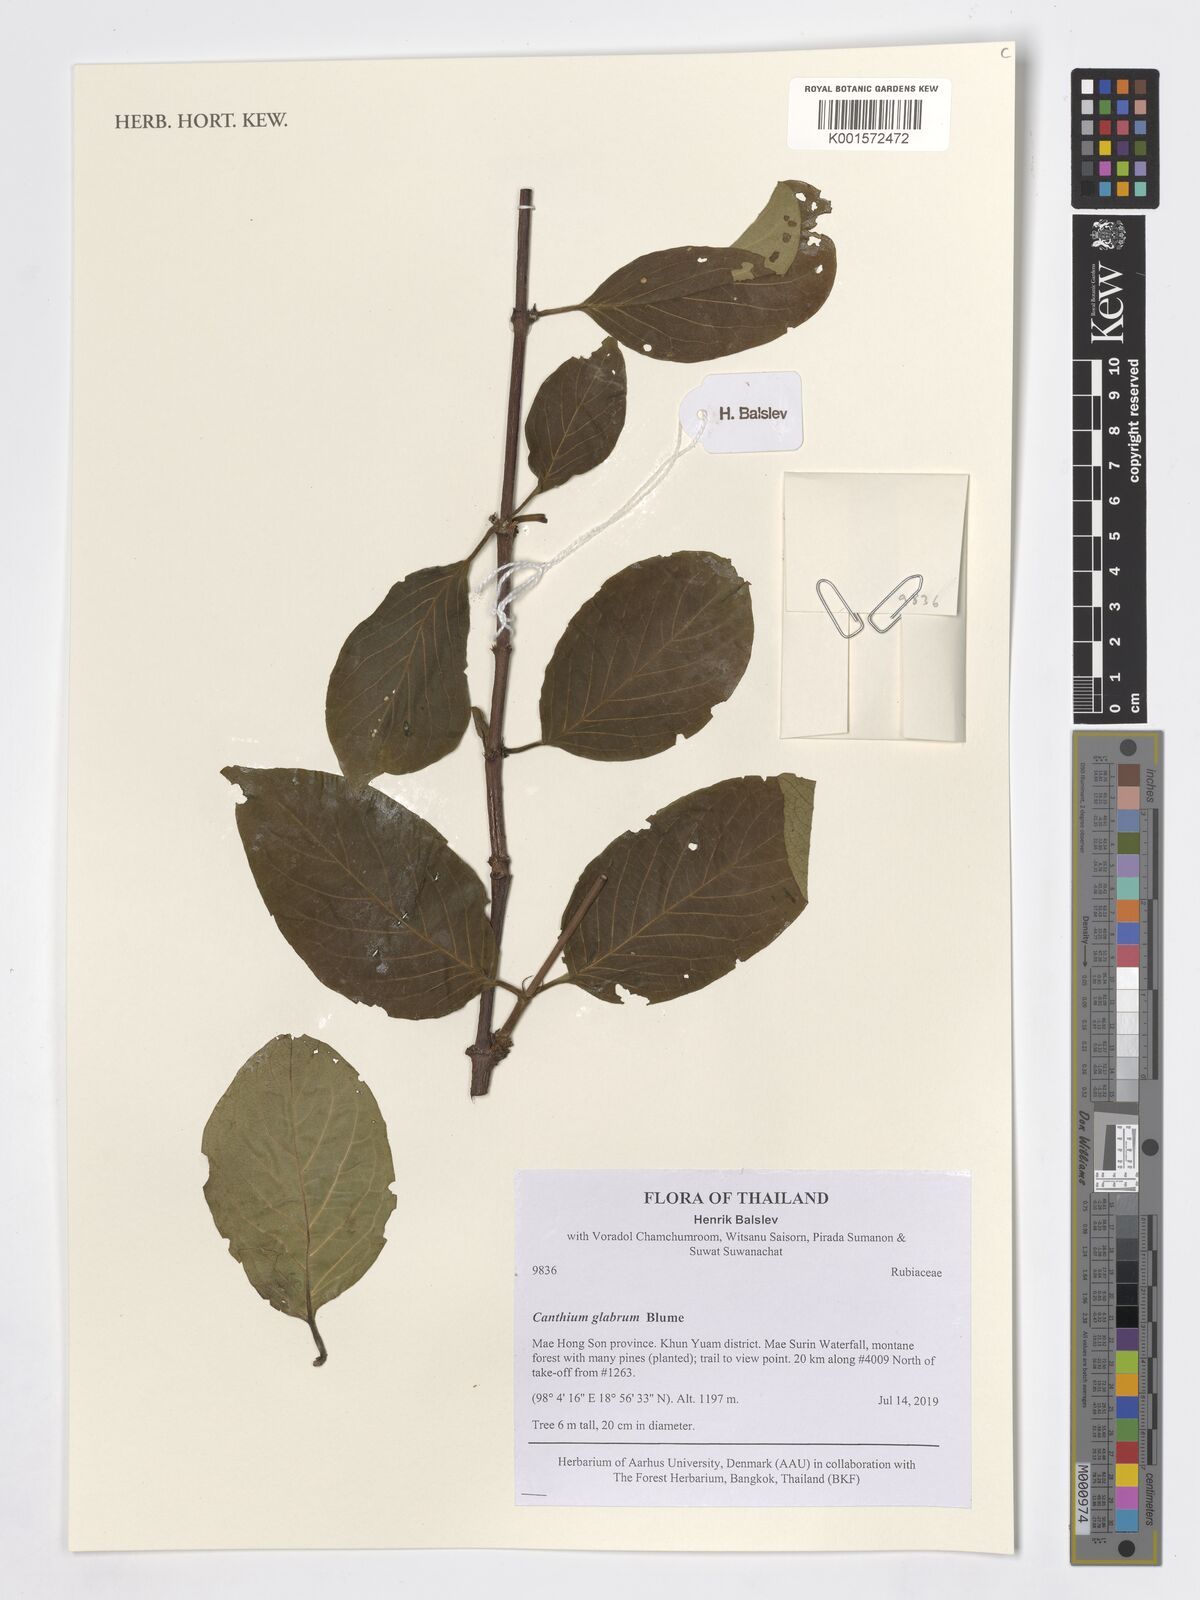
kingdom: Plantae
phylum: Tracheophyta
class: Magnoliopsida
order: Gentianales
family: Rubiaceae
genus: Canthiumera
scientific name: Canthiumera glabra
